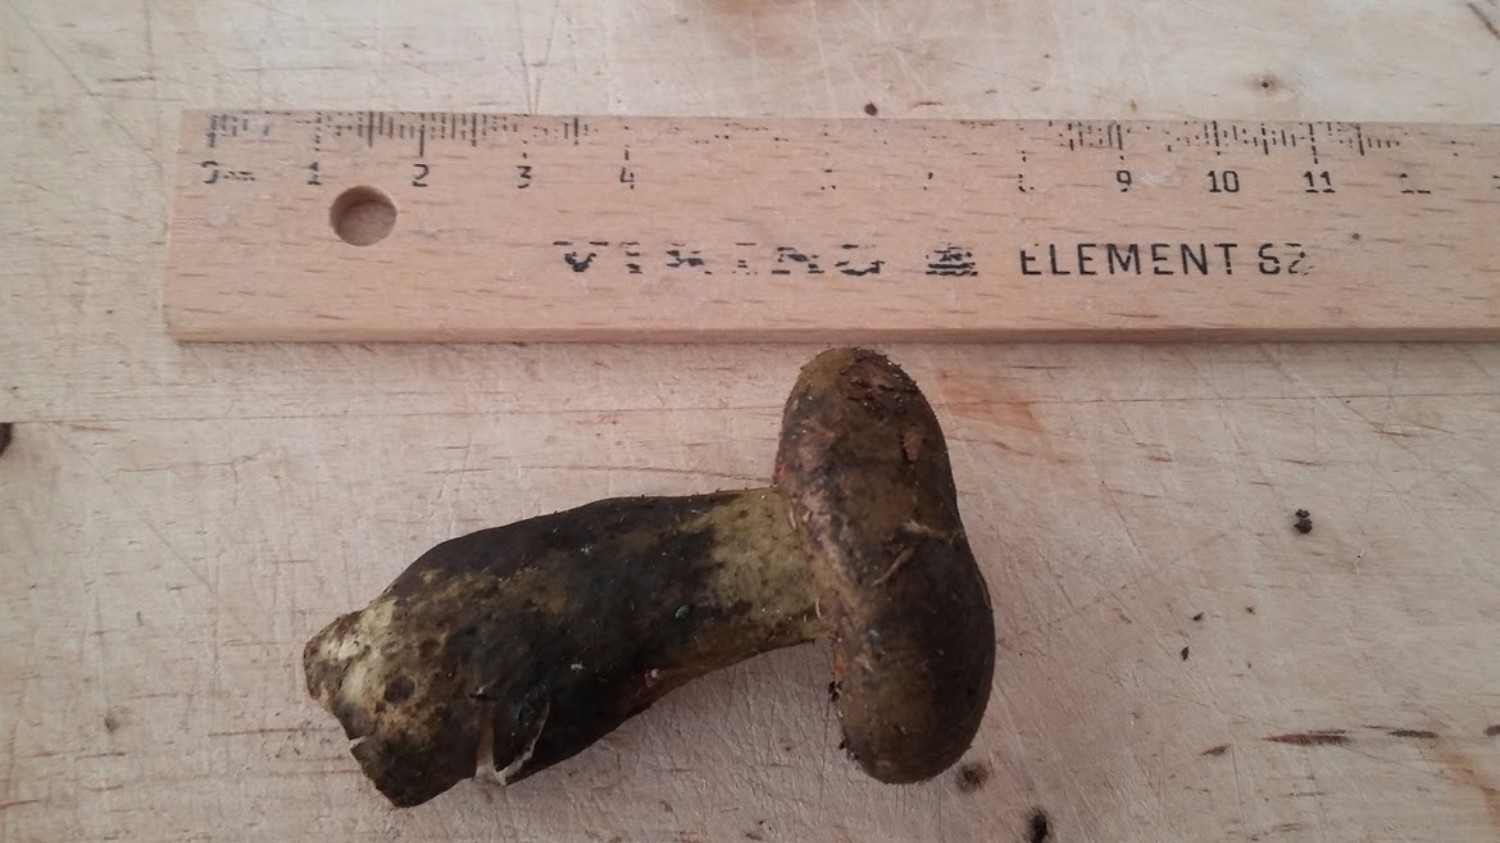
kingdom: Fungi
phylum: Basidiomycota
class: Agaricomycetes
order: Russulales
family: Russulaceae
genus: Lactarius
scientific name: Lactarius necator
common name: manddraber-mælkehat
